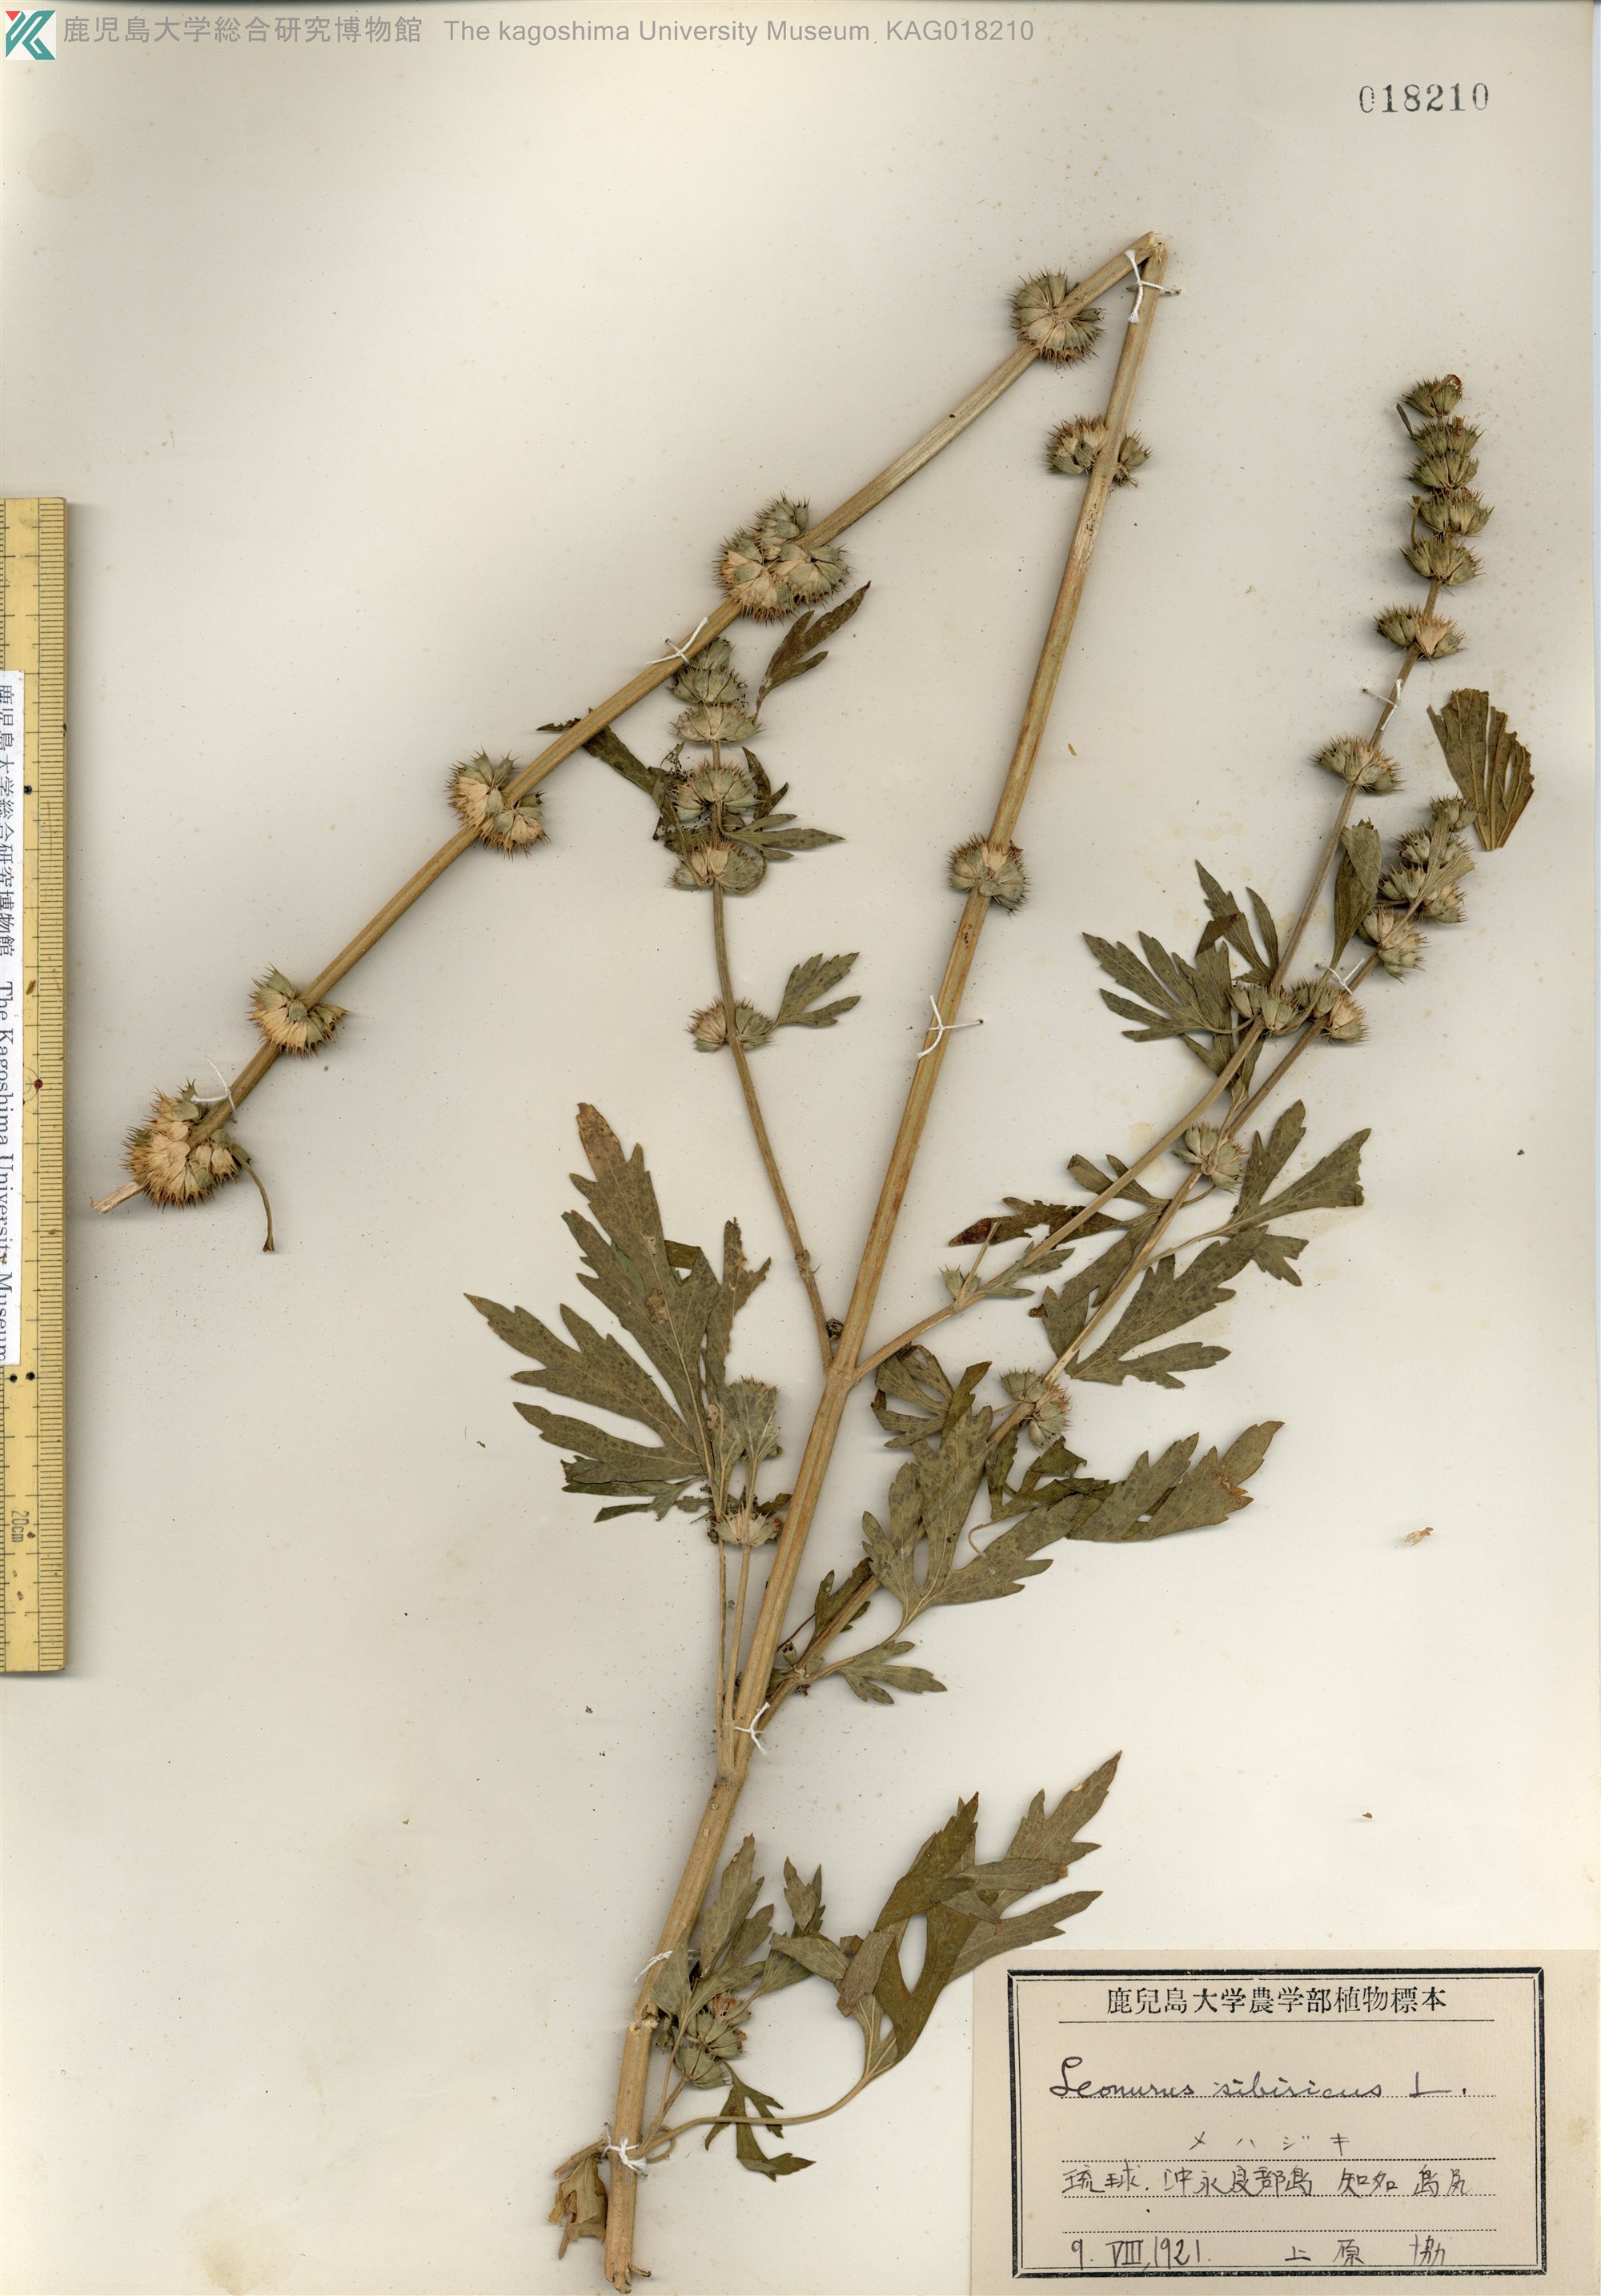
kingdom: Plantae
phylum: Tracheophyta
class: Magnoliopsida
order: Lamiales
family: Lamiaceae
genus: Leonurus
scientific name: Leonurus japonicus
